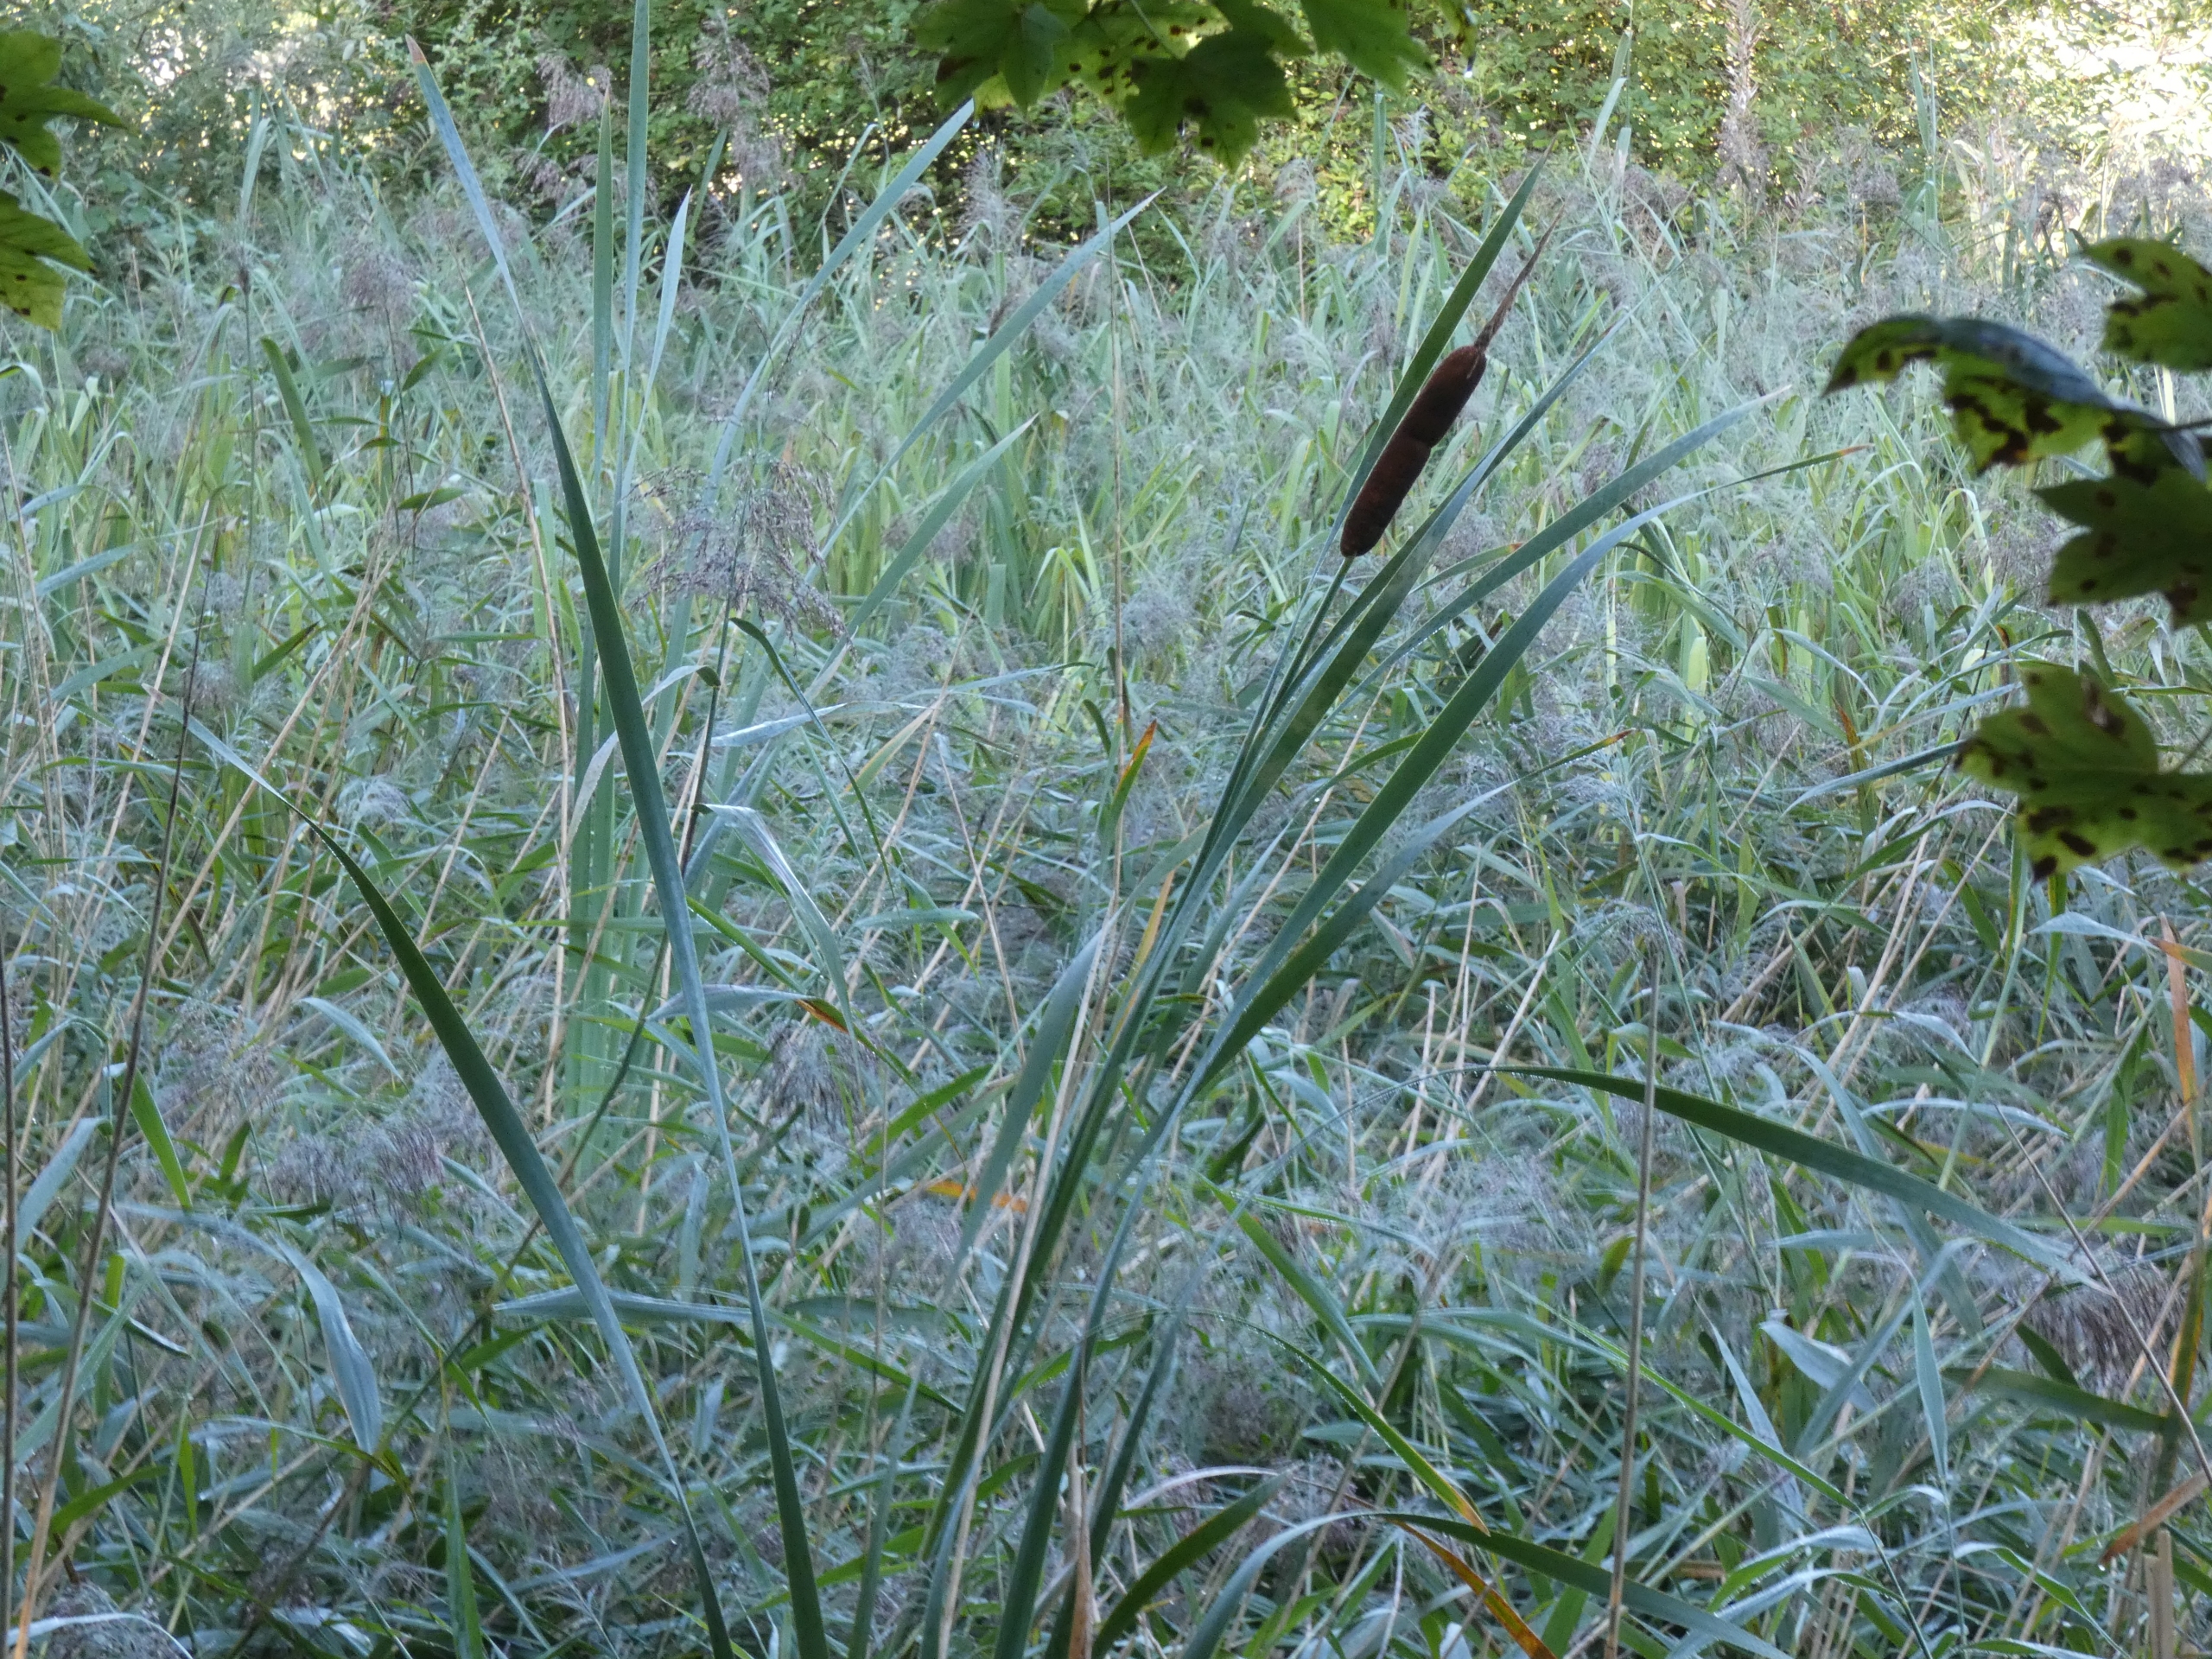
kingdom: Plantae
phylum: Tracheophyta
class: Liliopsida
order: Poales
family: Typhaceae
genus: Typha
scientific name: Typha latifolia
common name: Bredbladet dunhammer
